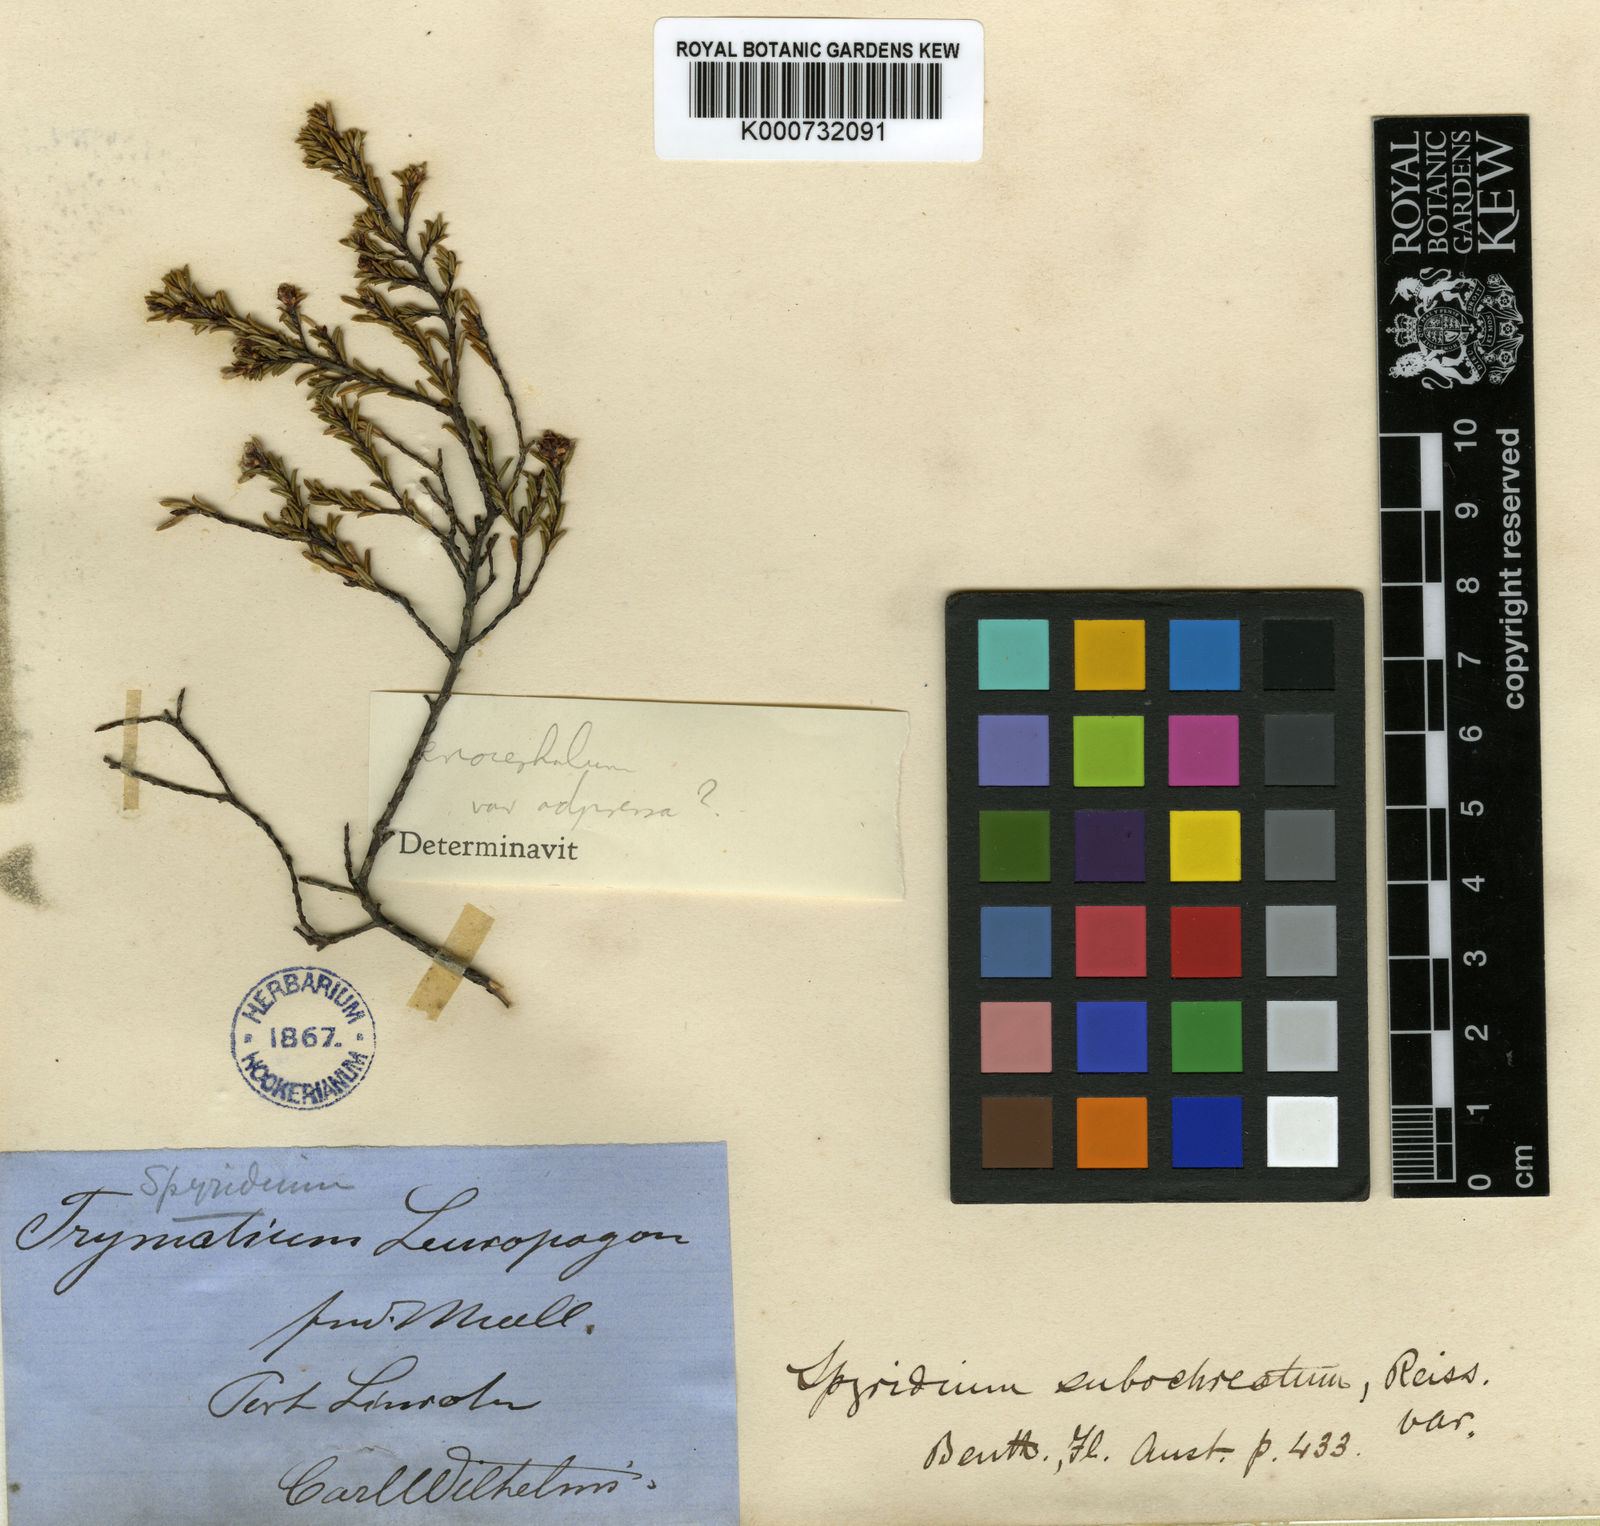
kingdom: Plantae
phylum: Tracheophyta
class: Magnoliopsida
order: Rosales
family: Rhamnaceae
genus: Spyridium
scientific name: Spyridium leucopogon
